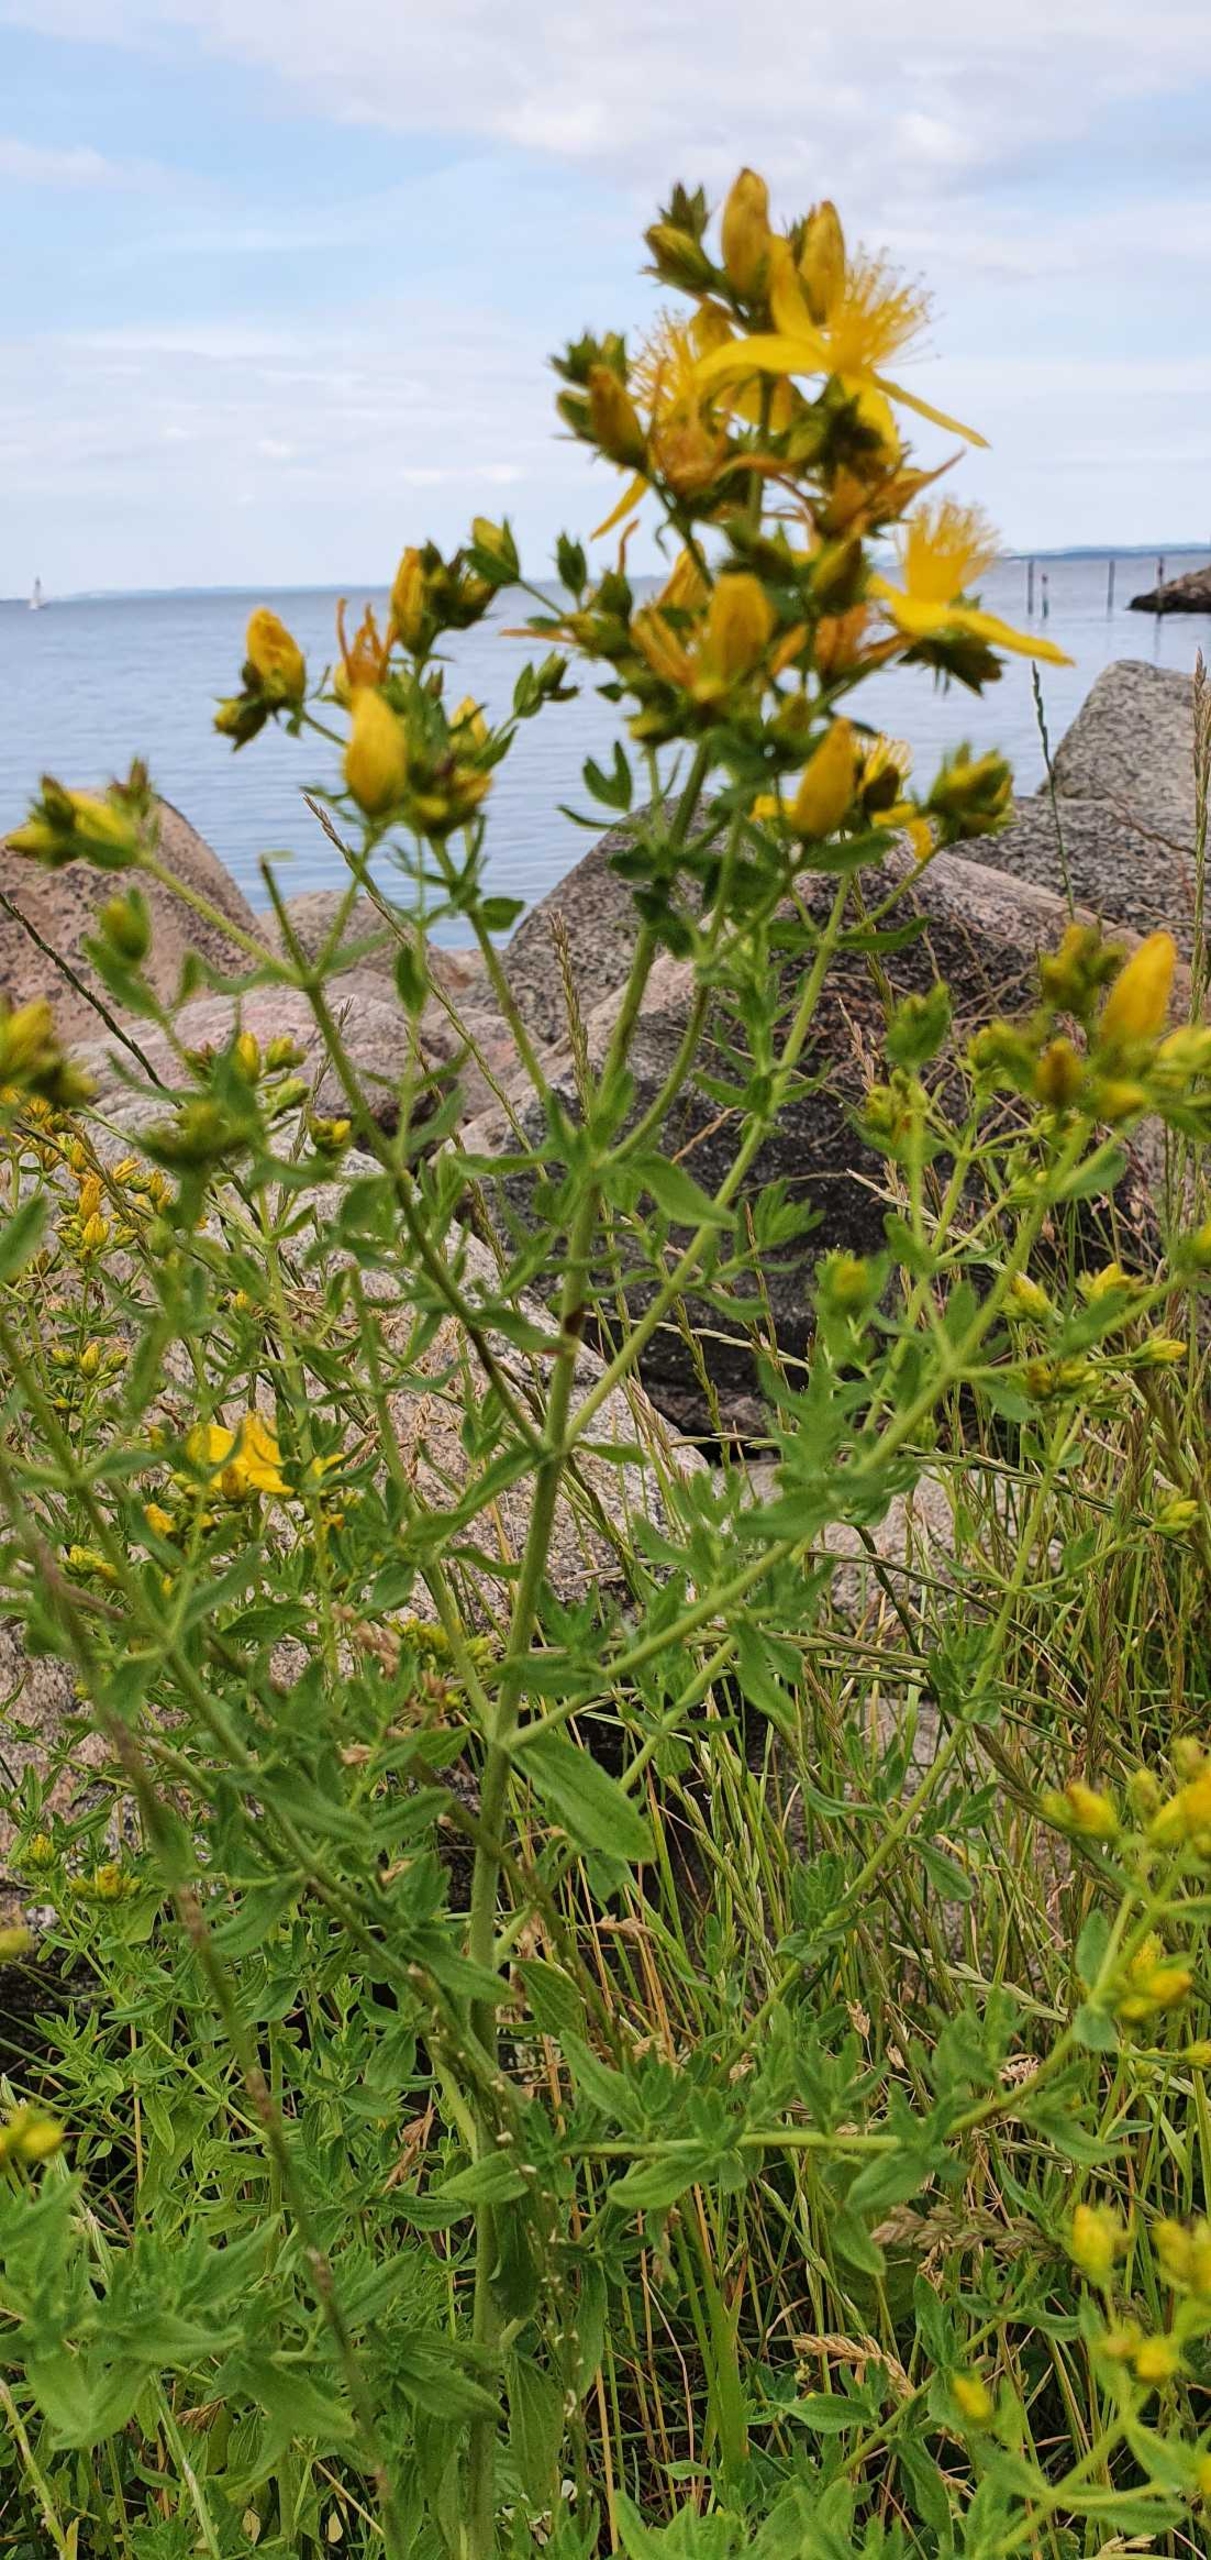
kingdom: Plantae
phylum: Tracheophyta
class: Magnoliopsida
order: Malpighiales
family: Hypericaceae
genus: Hypericum
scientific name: Hypericum perforatum
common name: Prikbladet perikon
